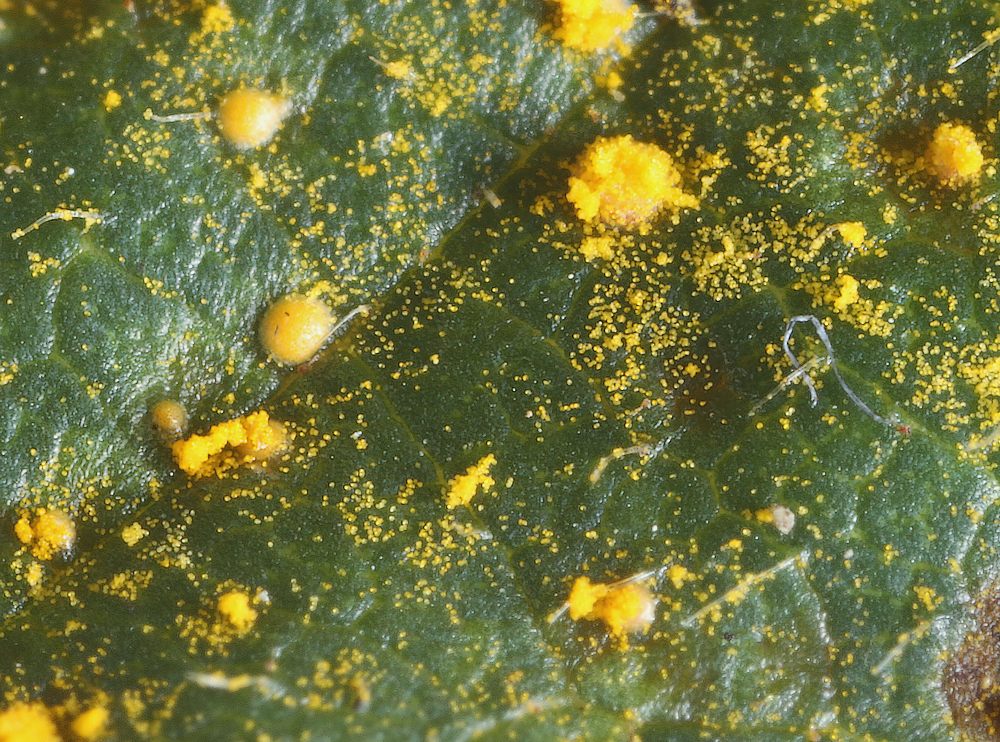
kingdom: Fungi
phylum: Basidiomycota
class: Pucciniomycetes
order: Pucciniales
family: Phragmidiaceae
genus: Phragmidium
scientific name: Phragmidium bulbosum
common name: brombær-flercellerust
